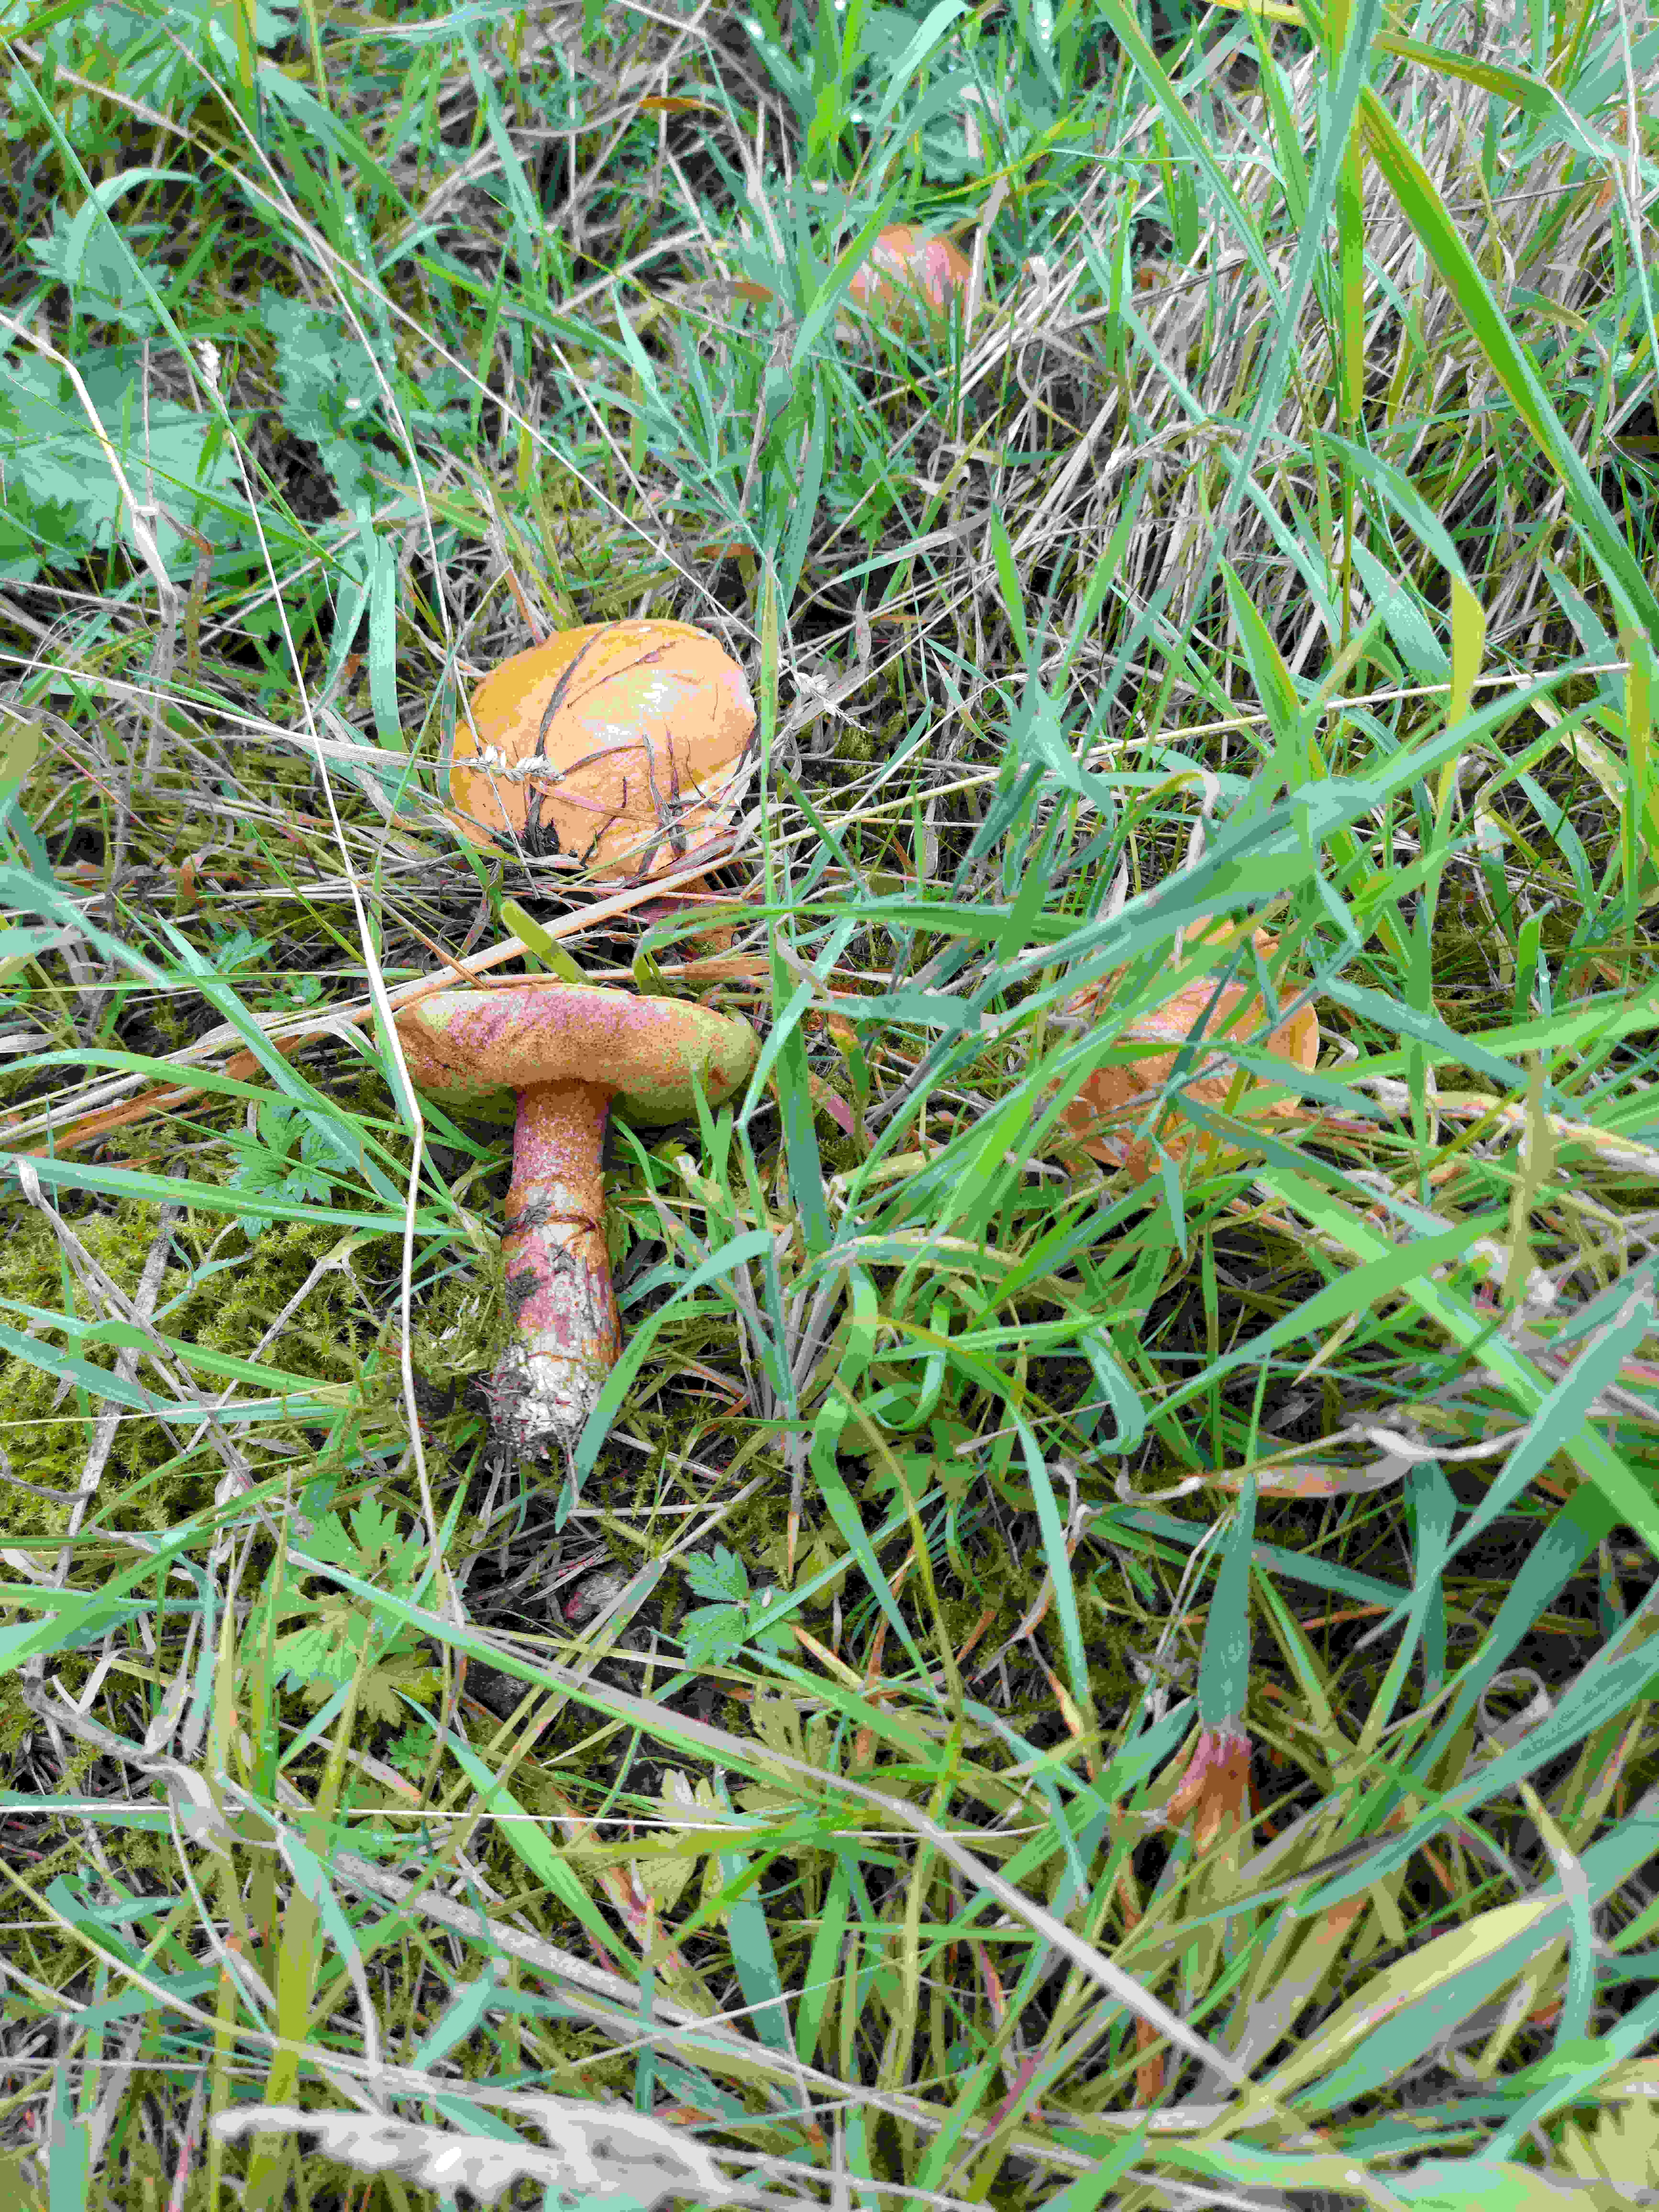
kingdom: Fungi
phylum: Basidiomycota
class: Agaricomycetes
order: Boletales
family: Suillaceae
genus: Suillus
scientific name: Suillus grevillei
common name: lærke-slimrørhat
